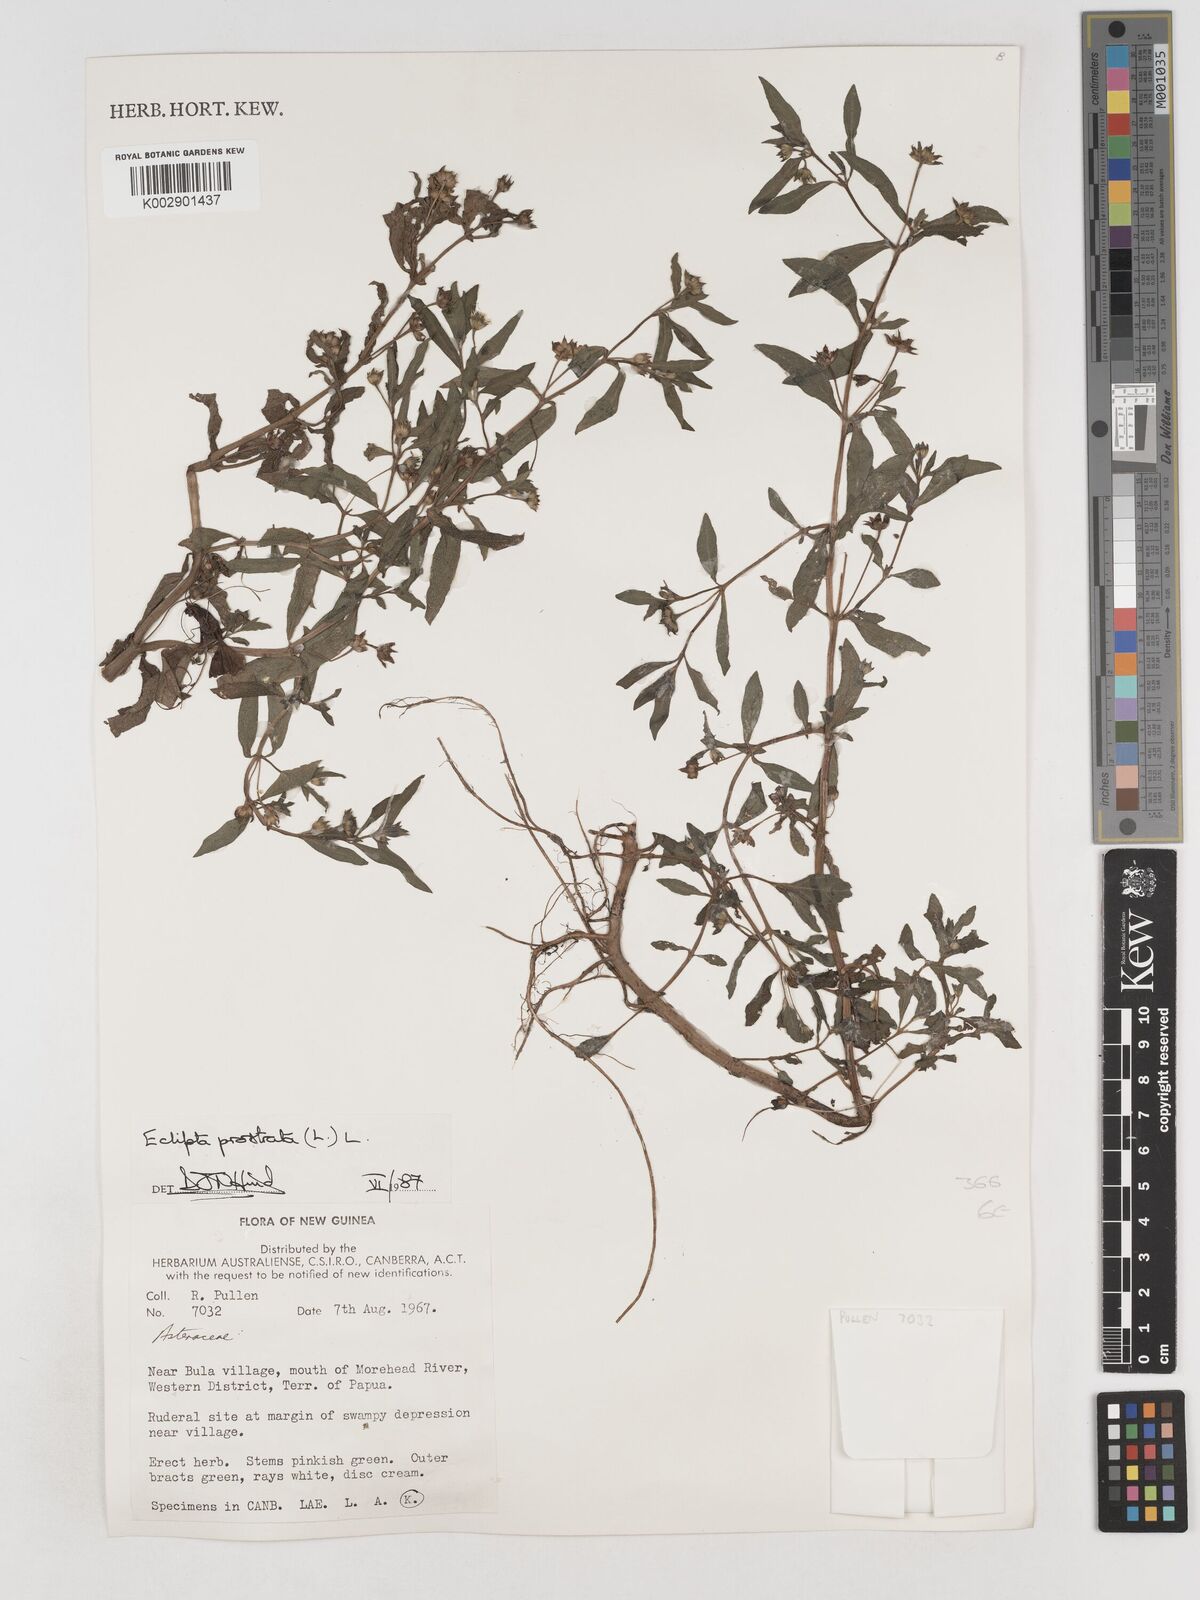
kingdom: Plantae
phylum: Tracheophyta
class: Magnoliopsida
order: Asterales
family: Asteraceae
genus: Eclipta
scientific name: Eclipta prostrata
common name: False daisy
